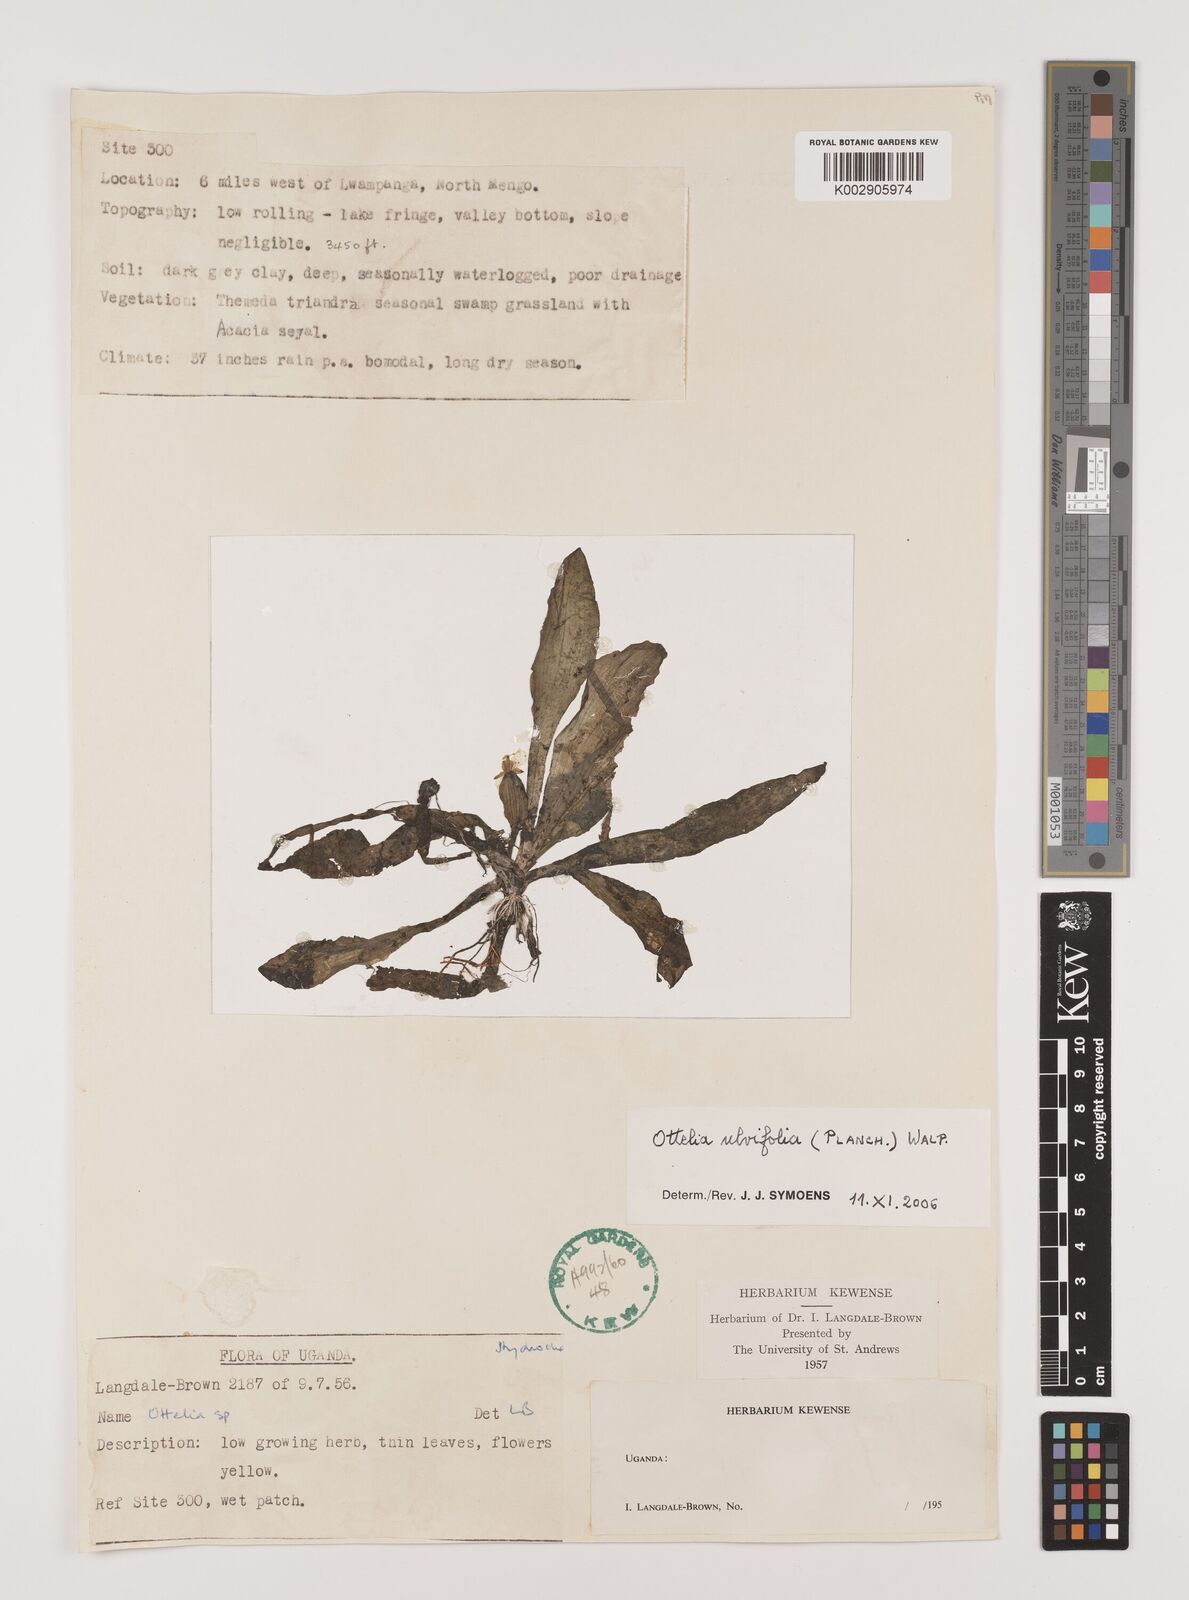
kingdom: Plantae
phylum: Tracheophyta
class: Liliopsida
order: Alismatales
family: Hydrocharitaceae
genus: Ottelia
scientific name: Ottelia ulvifolia
